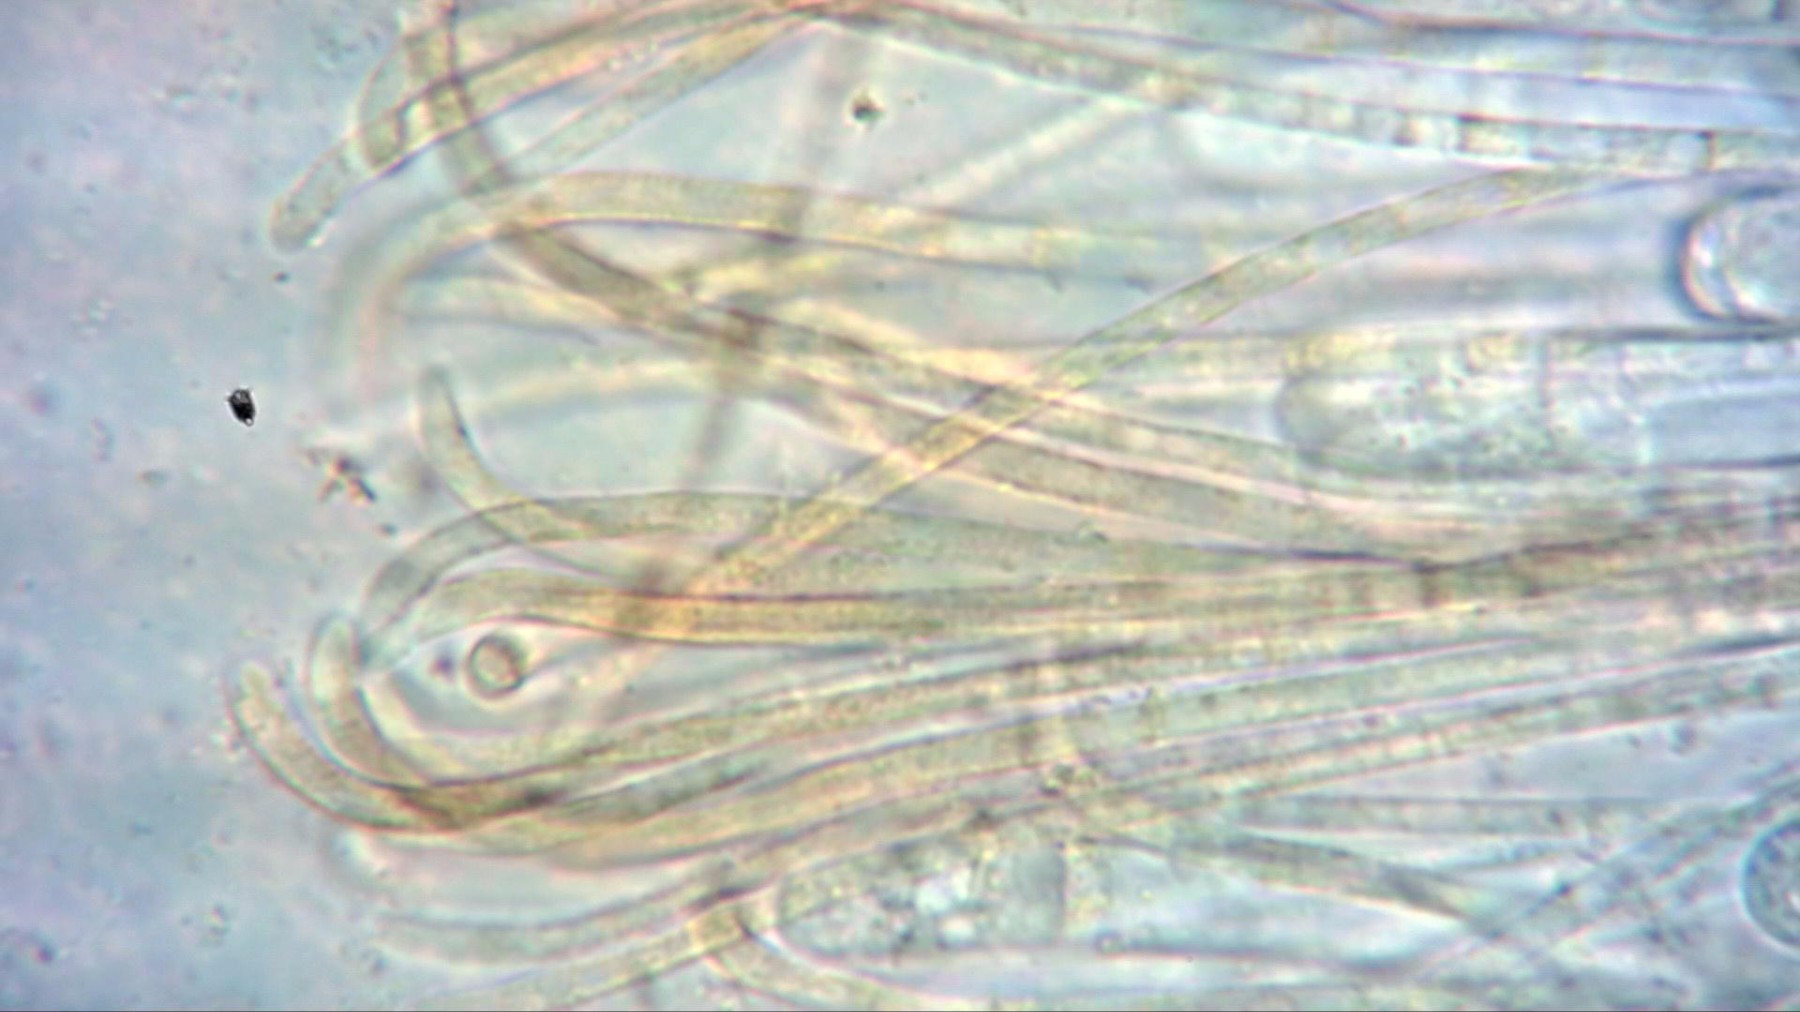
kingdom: Fungi
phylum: Ascomycota
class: Pezizomycetes
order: Pezizales
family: Pyronemataceae
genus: Byssonectria
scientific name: Byssonectria terrestris
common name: hjortebæger
